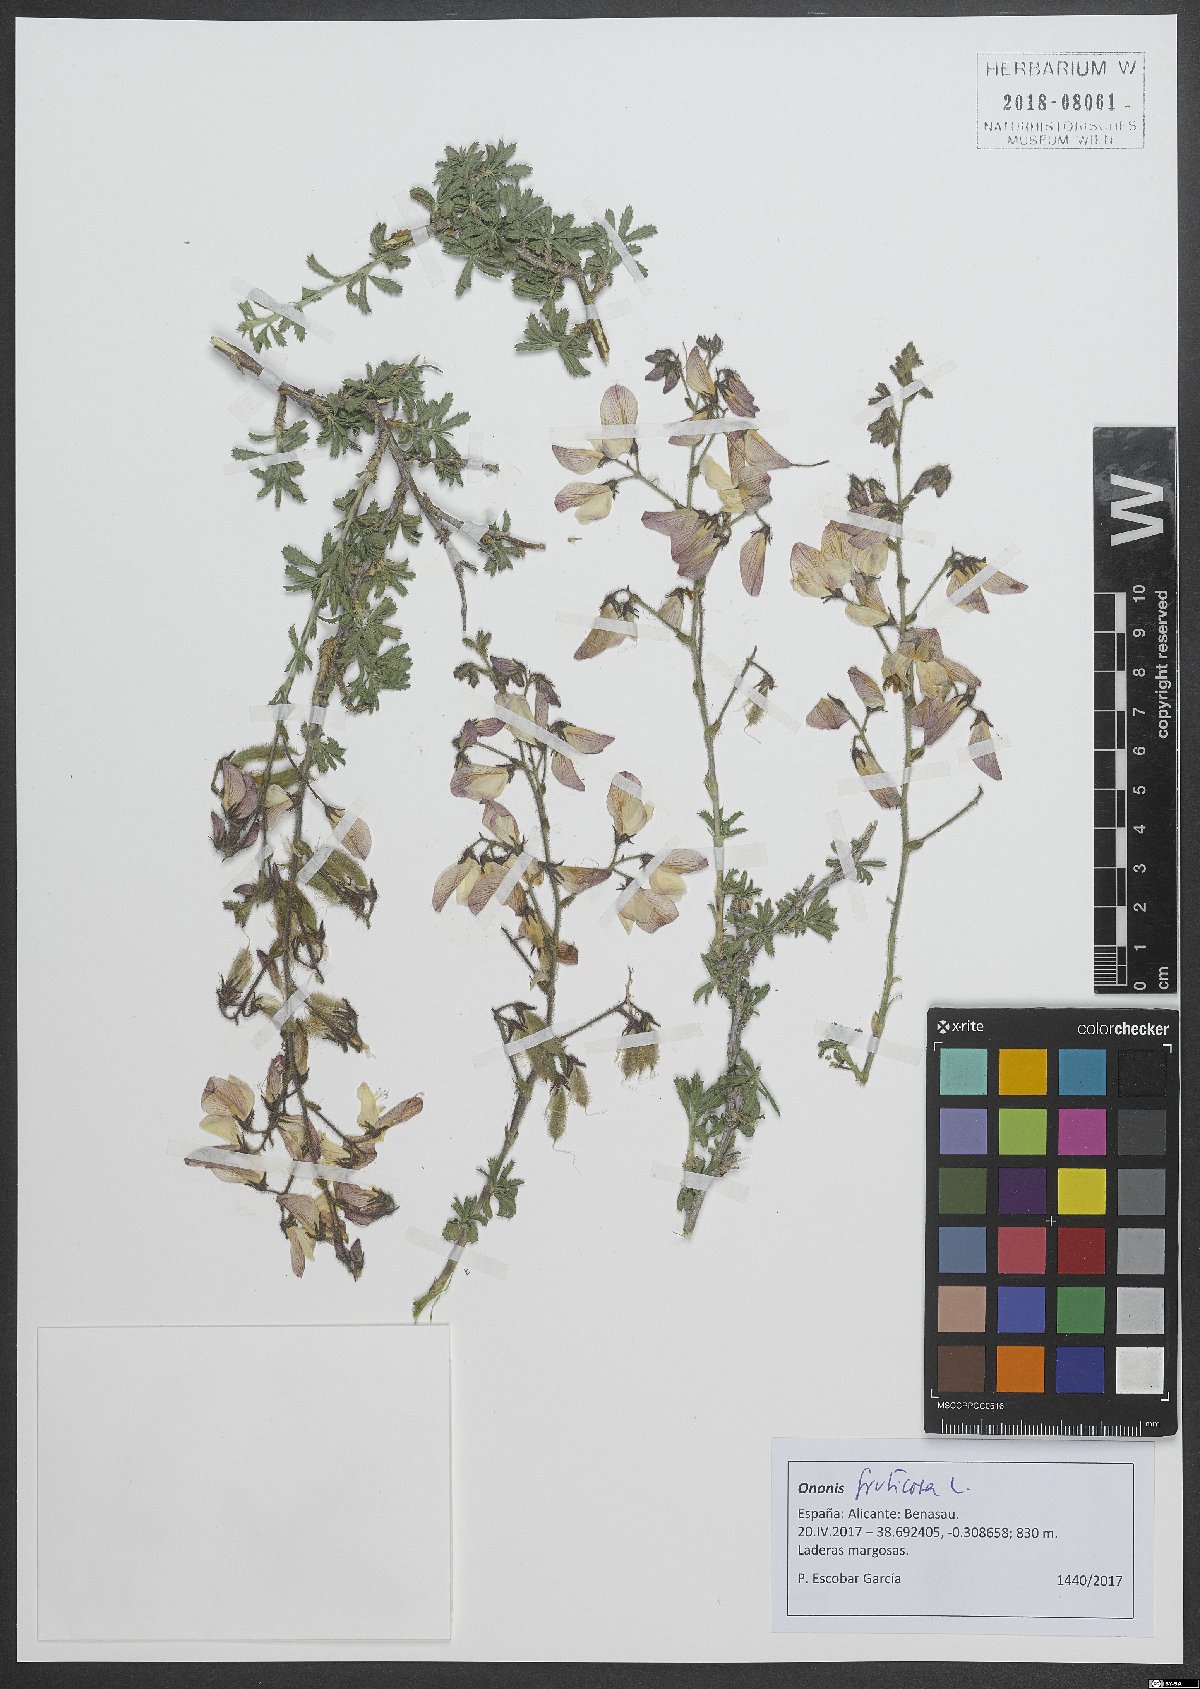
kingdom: Plantae
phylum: Tracheophyta
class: Magnoliopsida
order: Fabales
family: Fabaceae
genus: Ononis
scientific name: Ononis fruticosa
